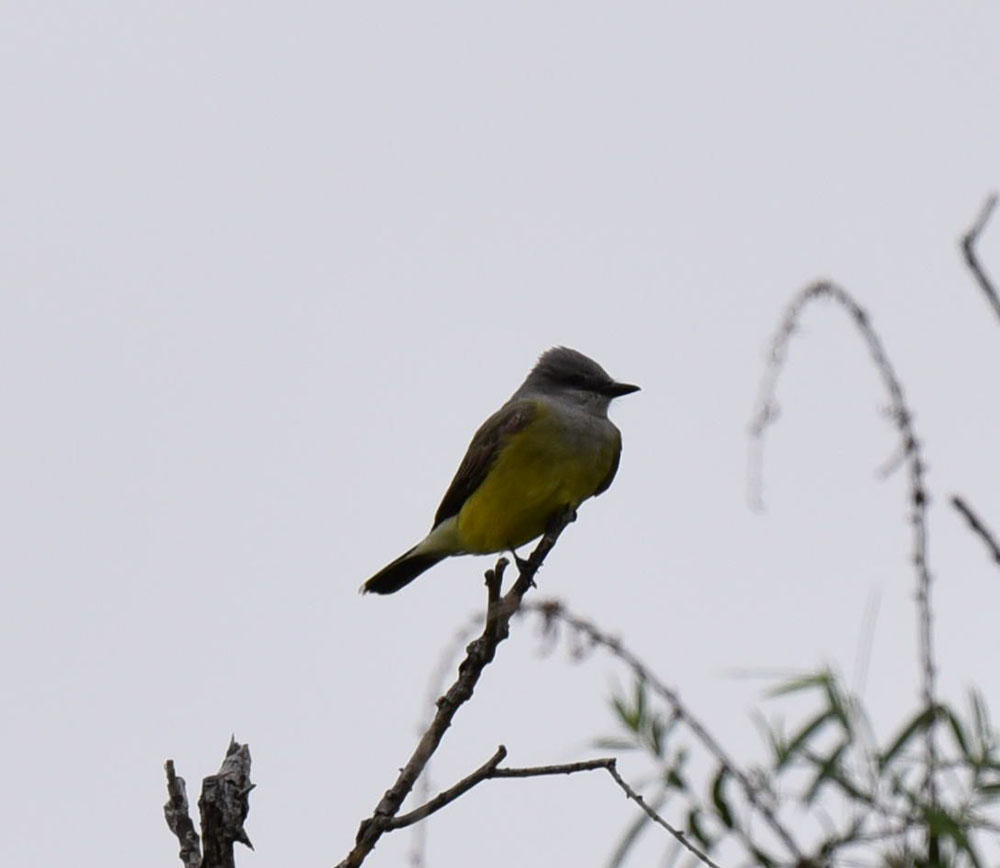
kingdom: Animalia
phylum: Chordata
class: Aves
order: Passeriformes
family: Tyrannidae
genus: Tyrannus
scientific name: Tyrannus verticalis
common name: Western kingbird
